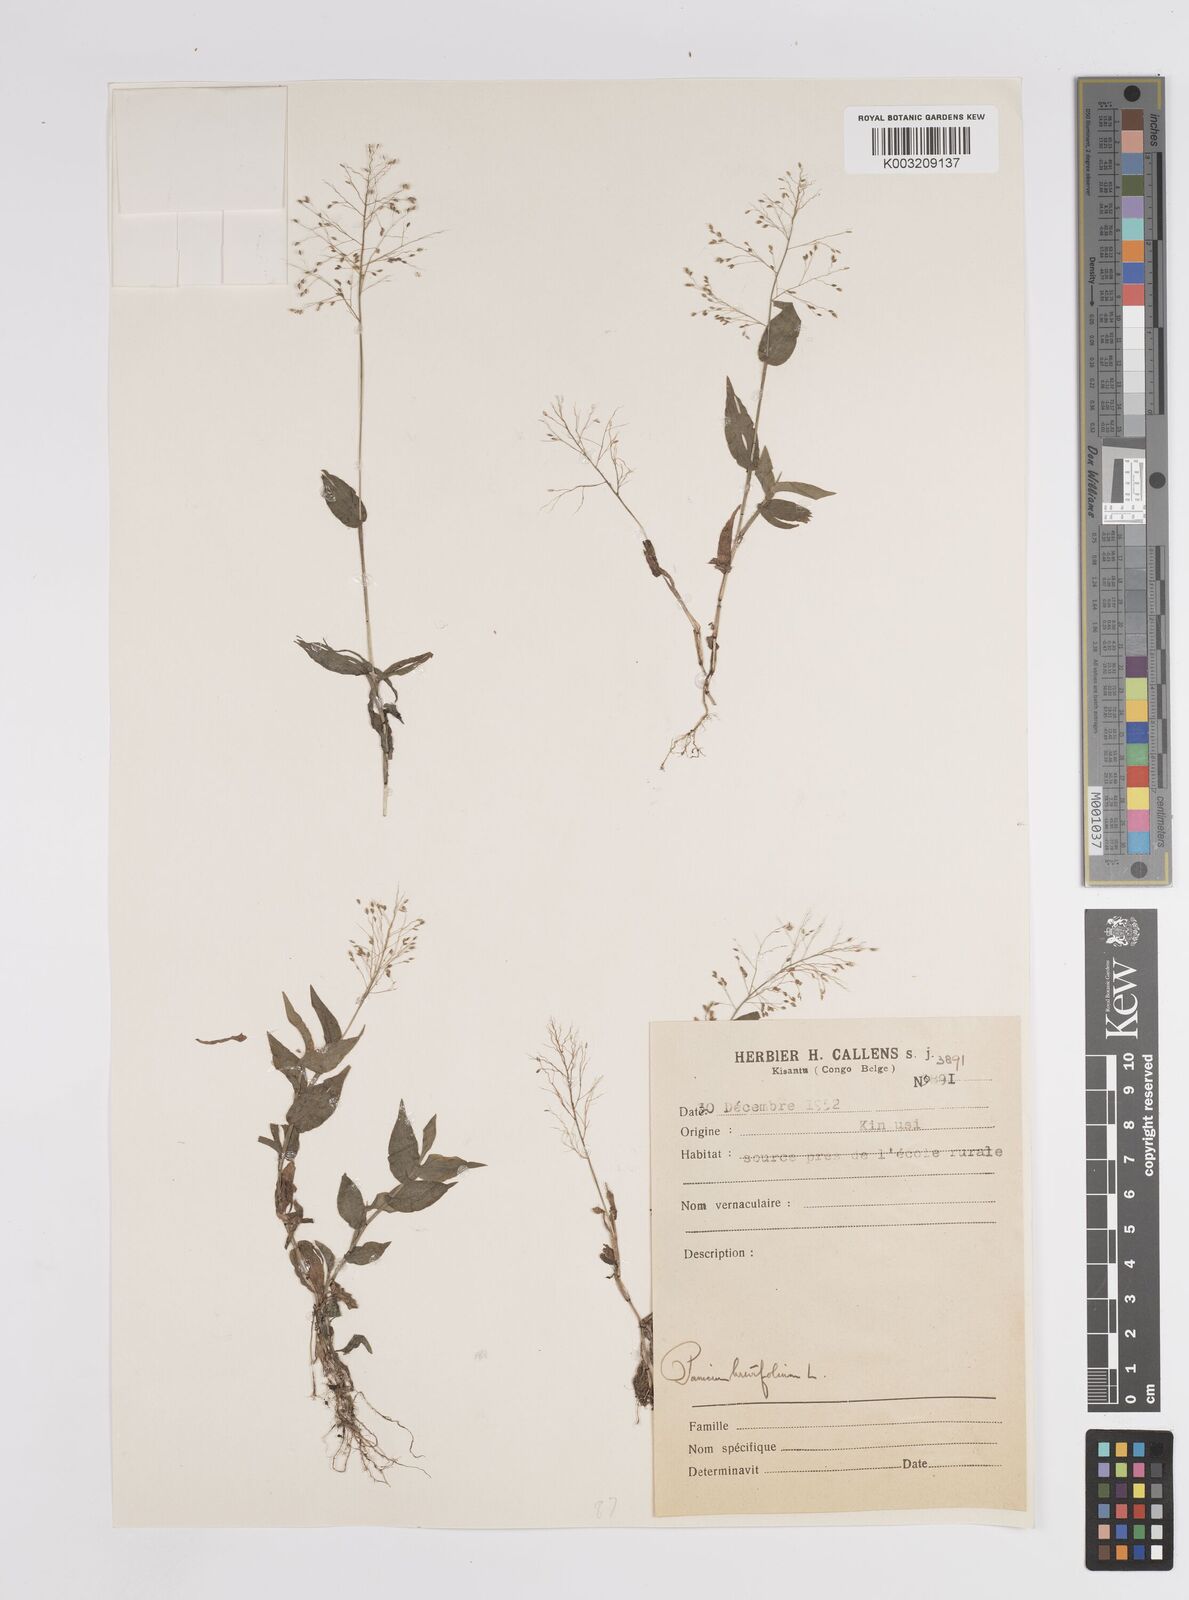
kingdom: Plantae
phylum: Tracheophyta
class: Liliopsida
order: Poales
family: Poaceae
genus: Panicum
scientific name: Panicum brevifolium
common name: Shortleaf panic grass
